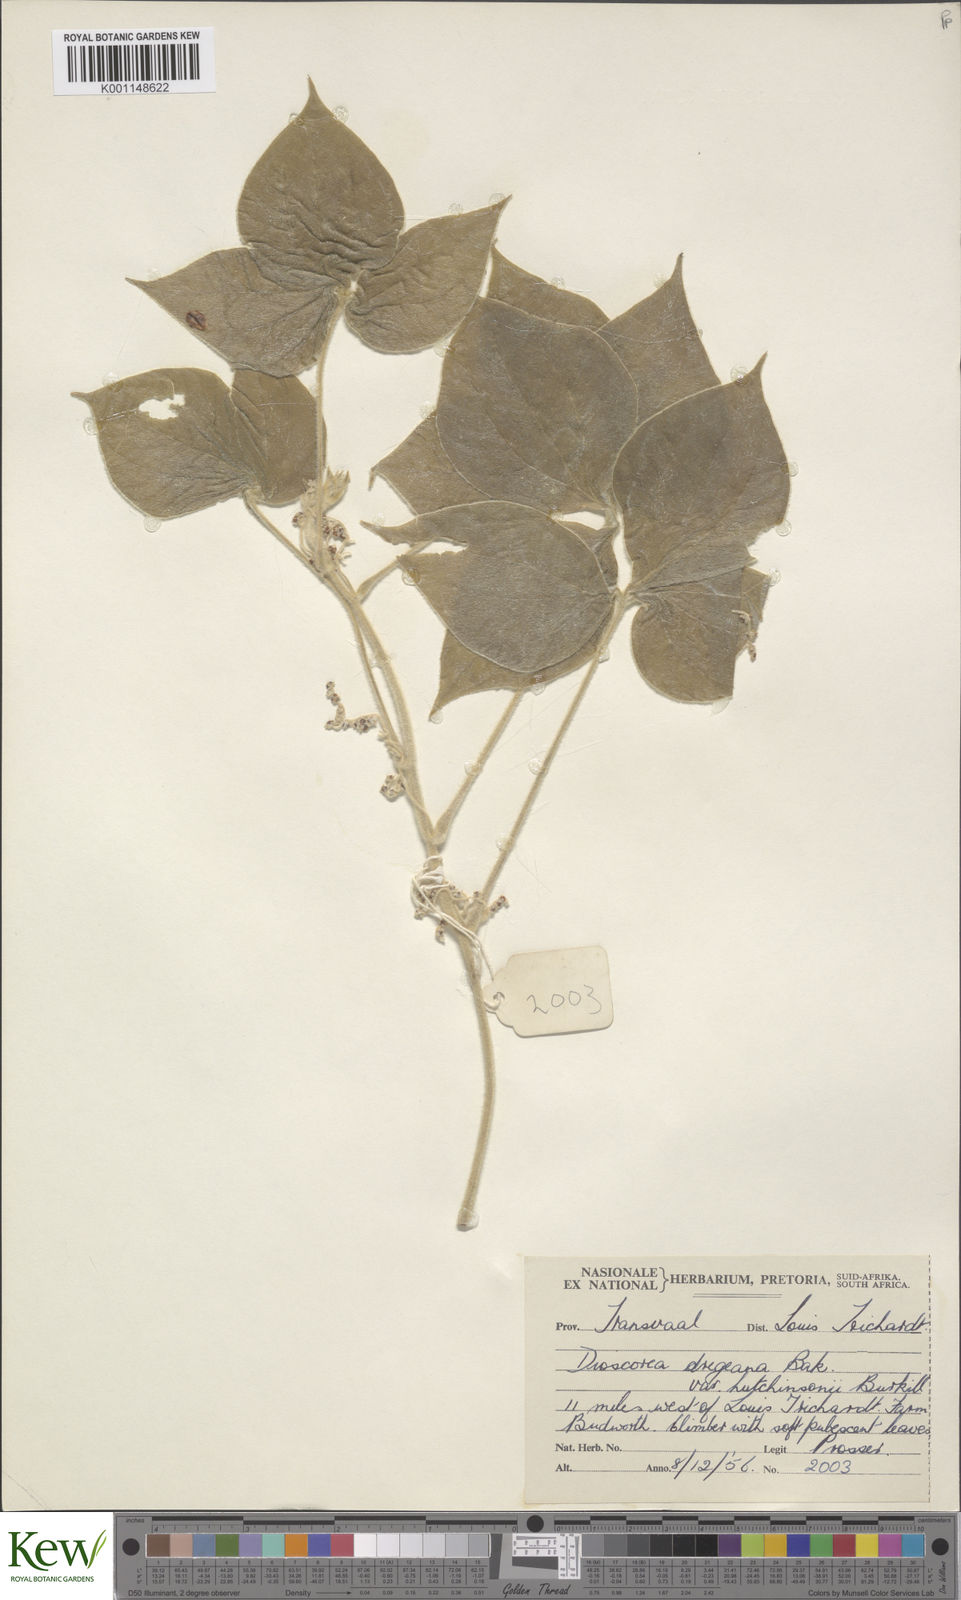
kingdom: Plantae
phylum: Tracheophyta
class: Liliopsida
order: Dioscoreales
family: Dioscoreaceae
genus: Dioscorea
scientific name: Dioscorea dregeana
